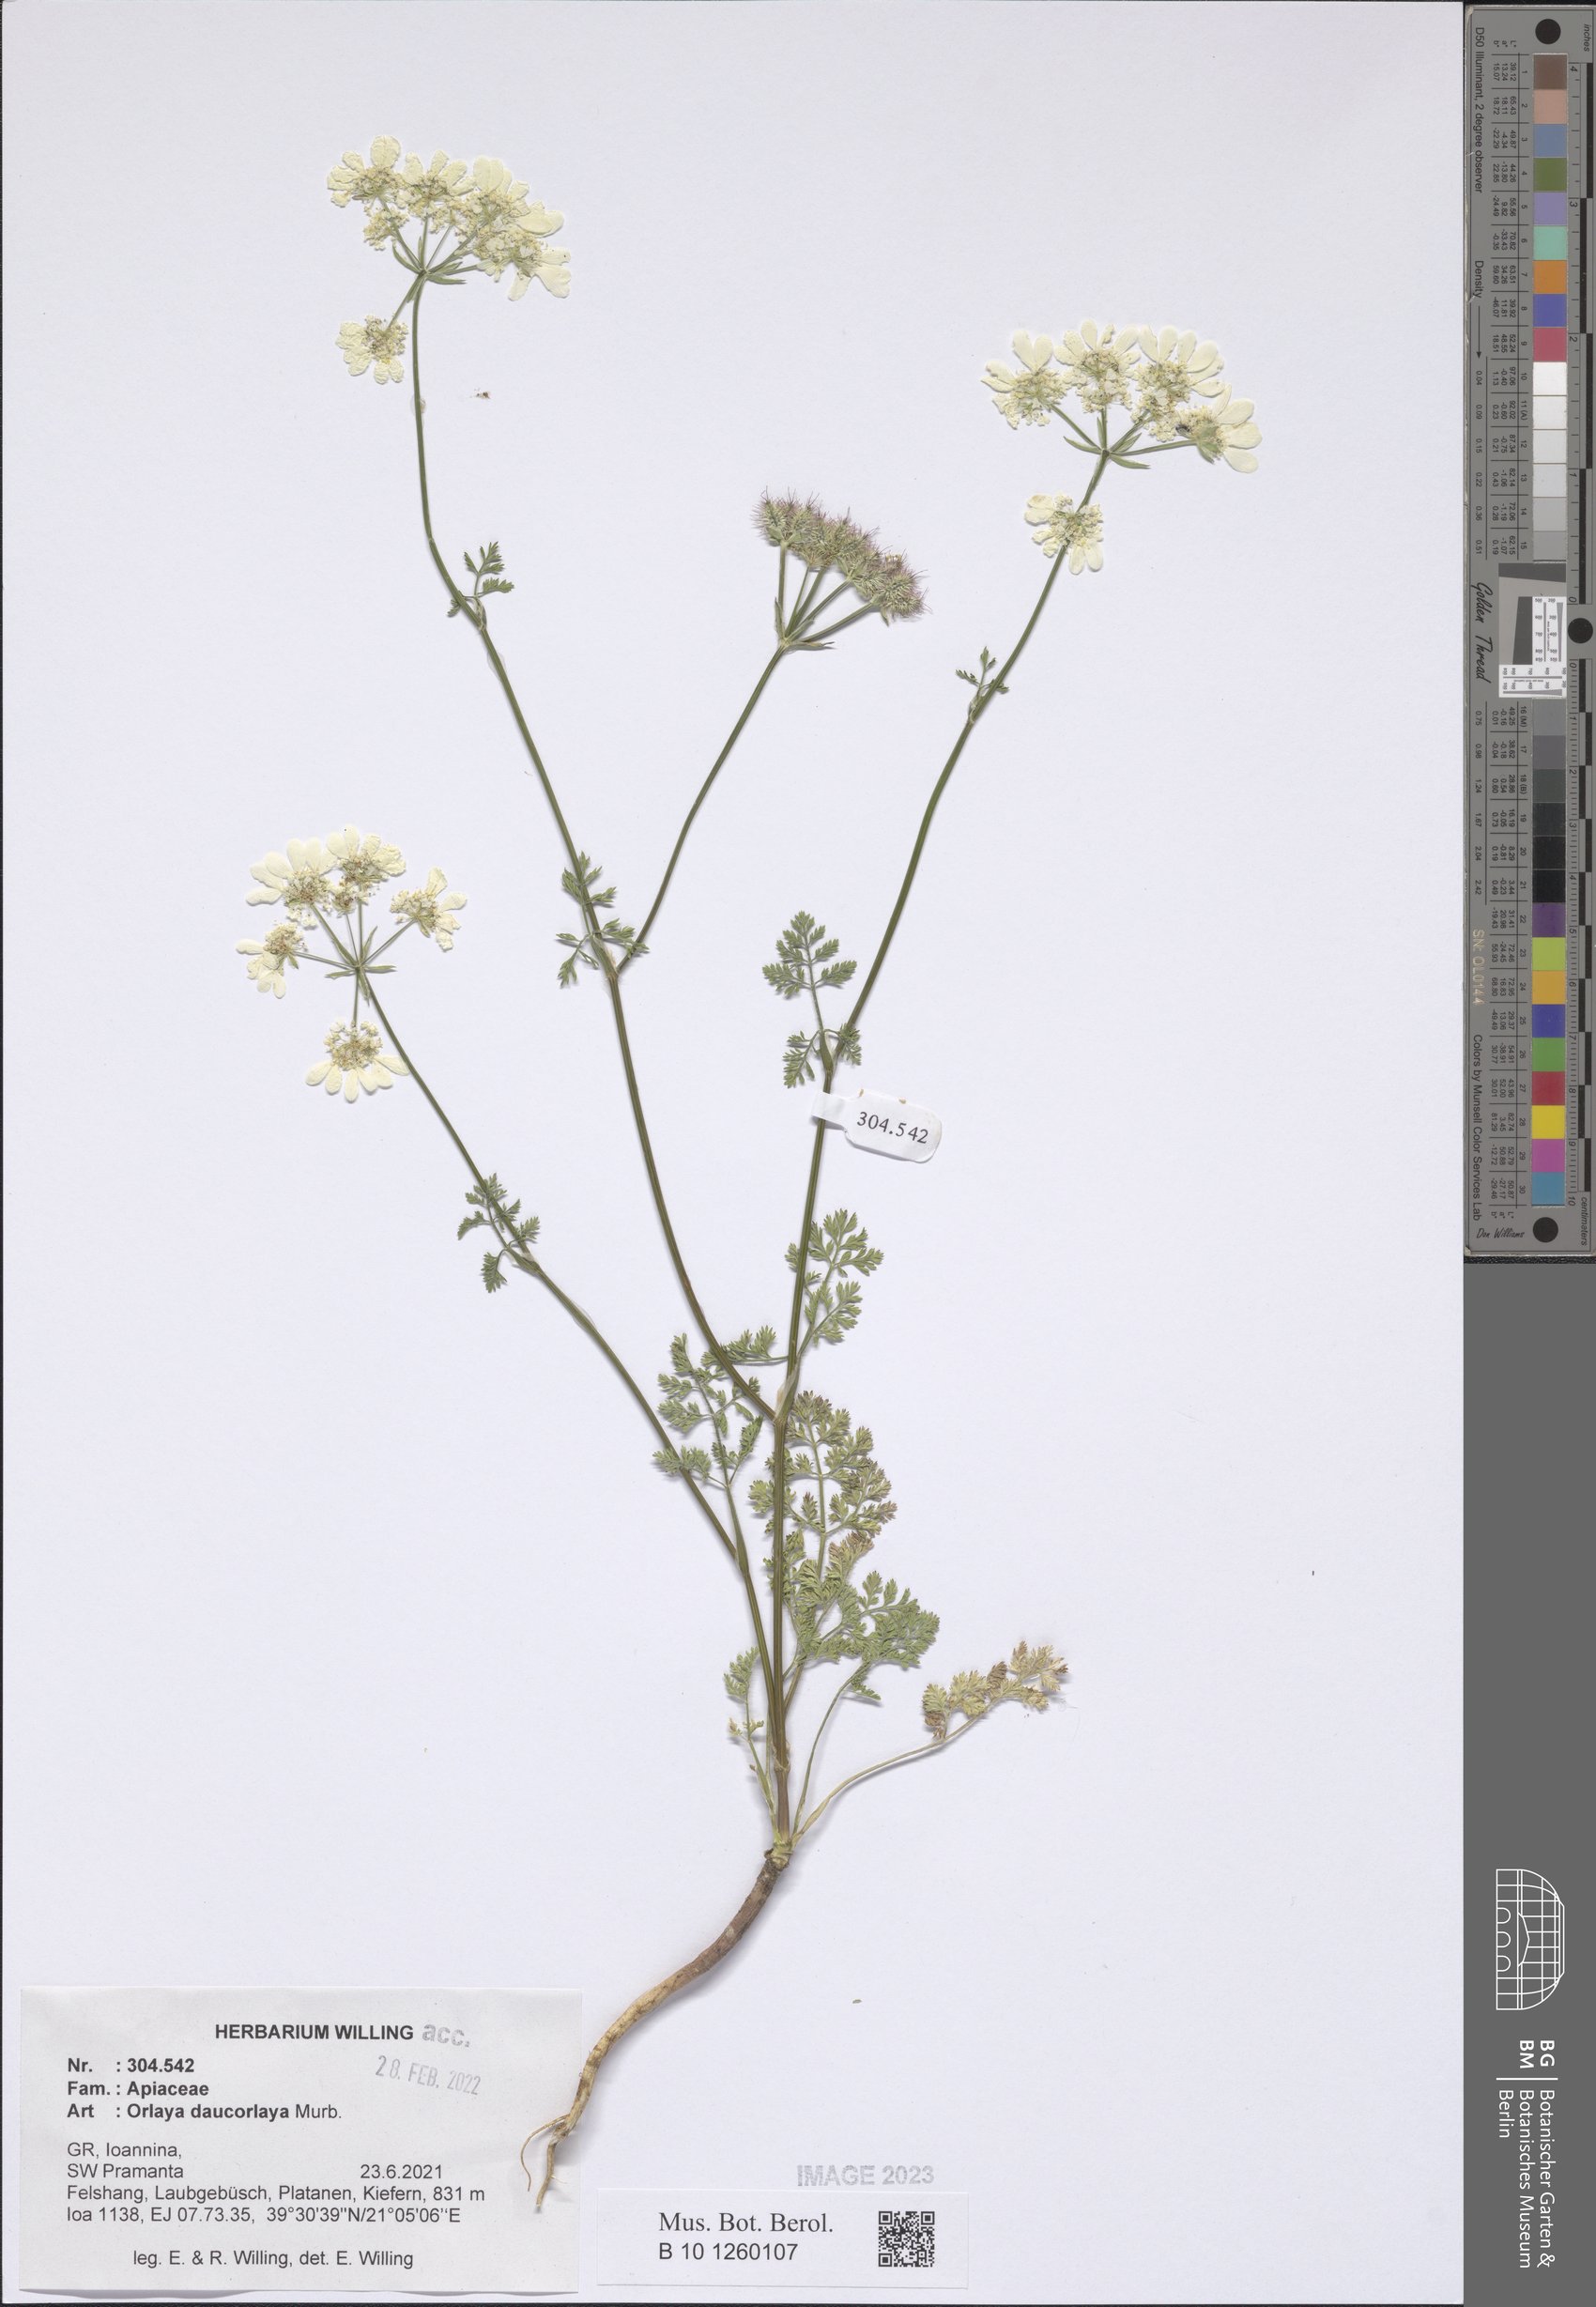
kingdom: Plantae
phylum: Tracheophyta
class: Magnoliopsida
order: Apiales
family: Apiaceae
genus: Orlaya
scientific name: Orlaya daucorlaya
